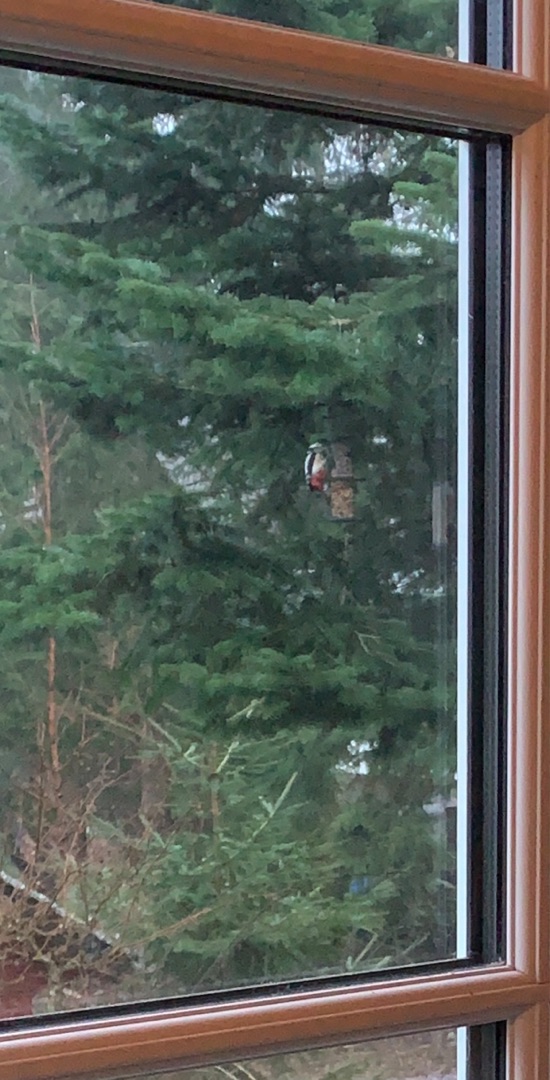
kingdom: Animalia
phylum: Chordata
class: Aves
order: Piciformes
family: Picidae
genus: Dendrocopos
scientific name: Dendrocopos major
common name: Stor flagspætte
